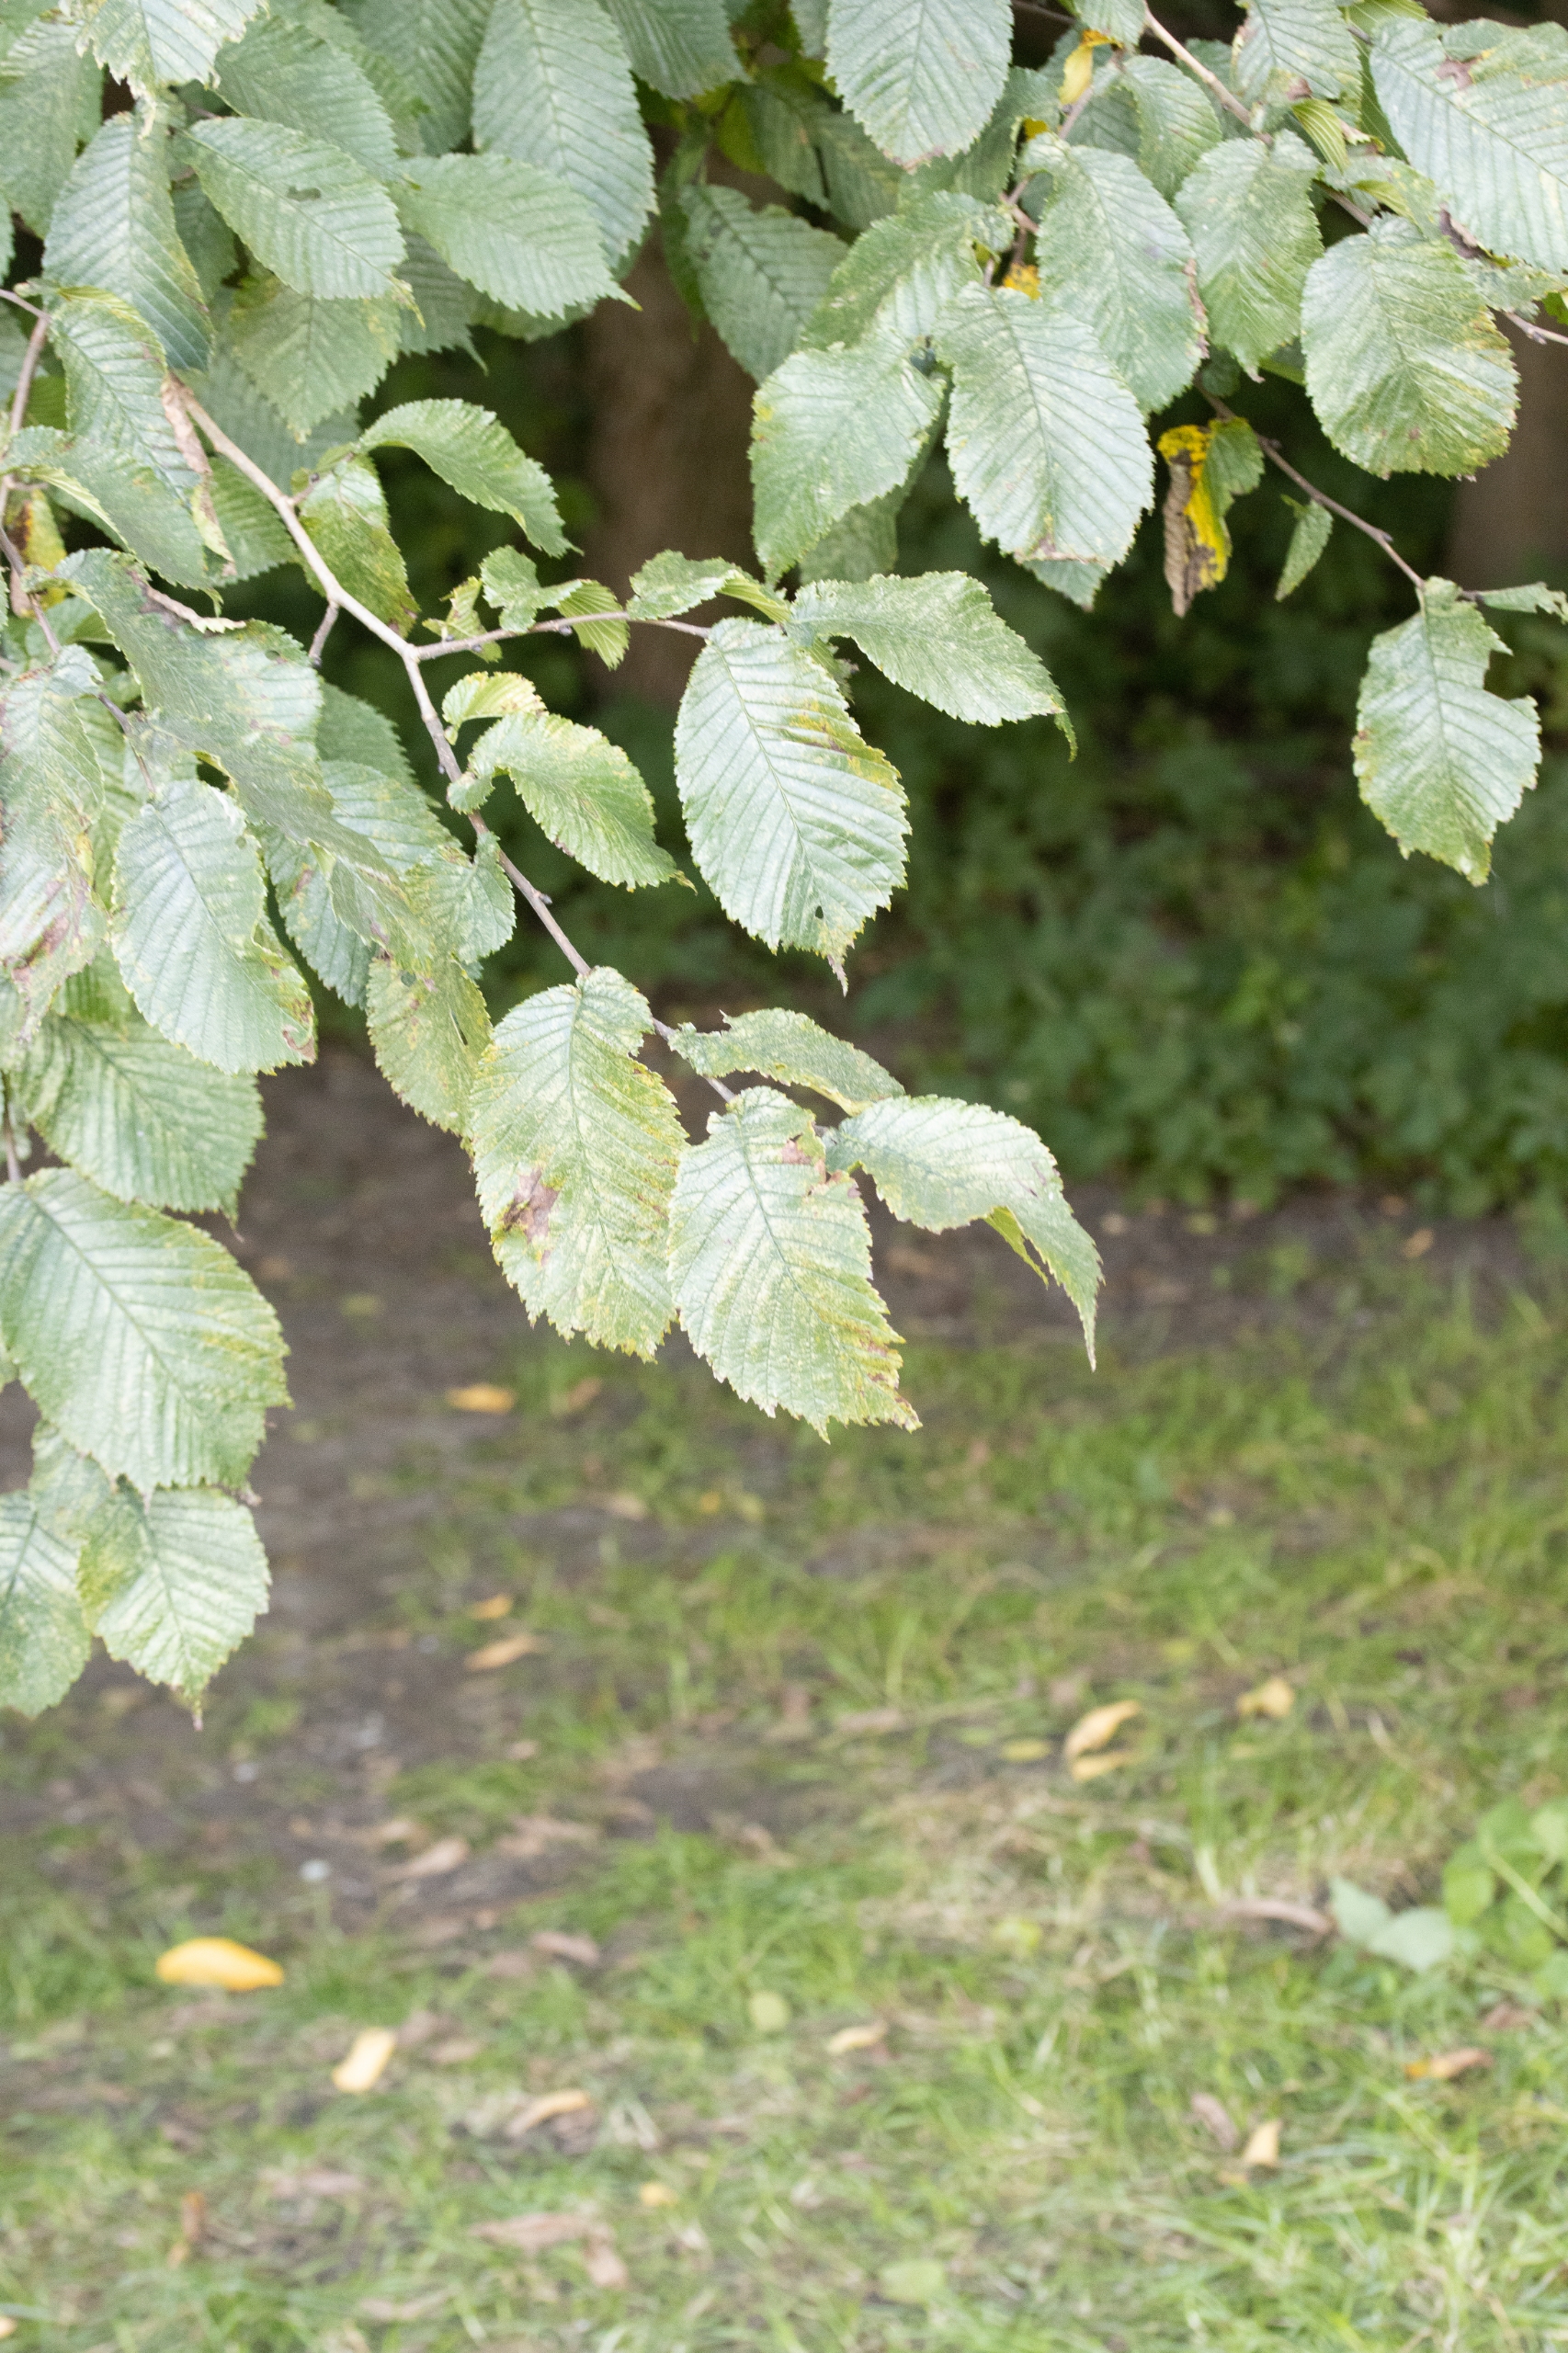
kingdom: Plantae
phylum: Tracheophyta
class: Magnoliopsida
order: Rosales
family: Ulmaceae
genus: Ulmus
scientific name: Ulmus glabra
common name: Skov-elm/storbladet elm
